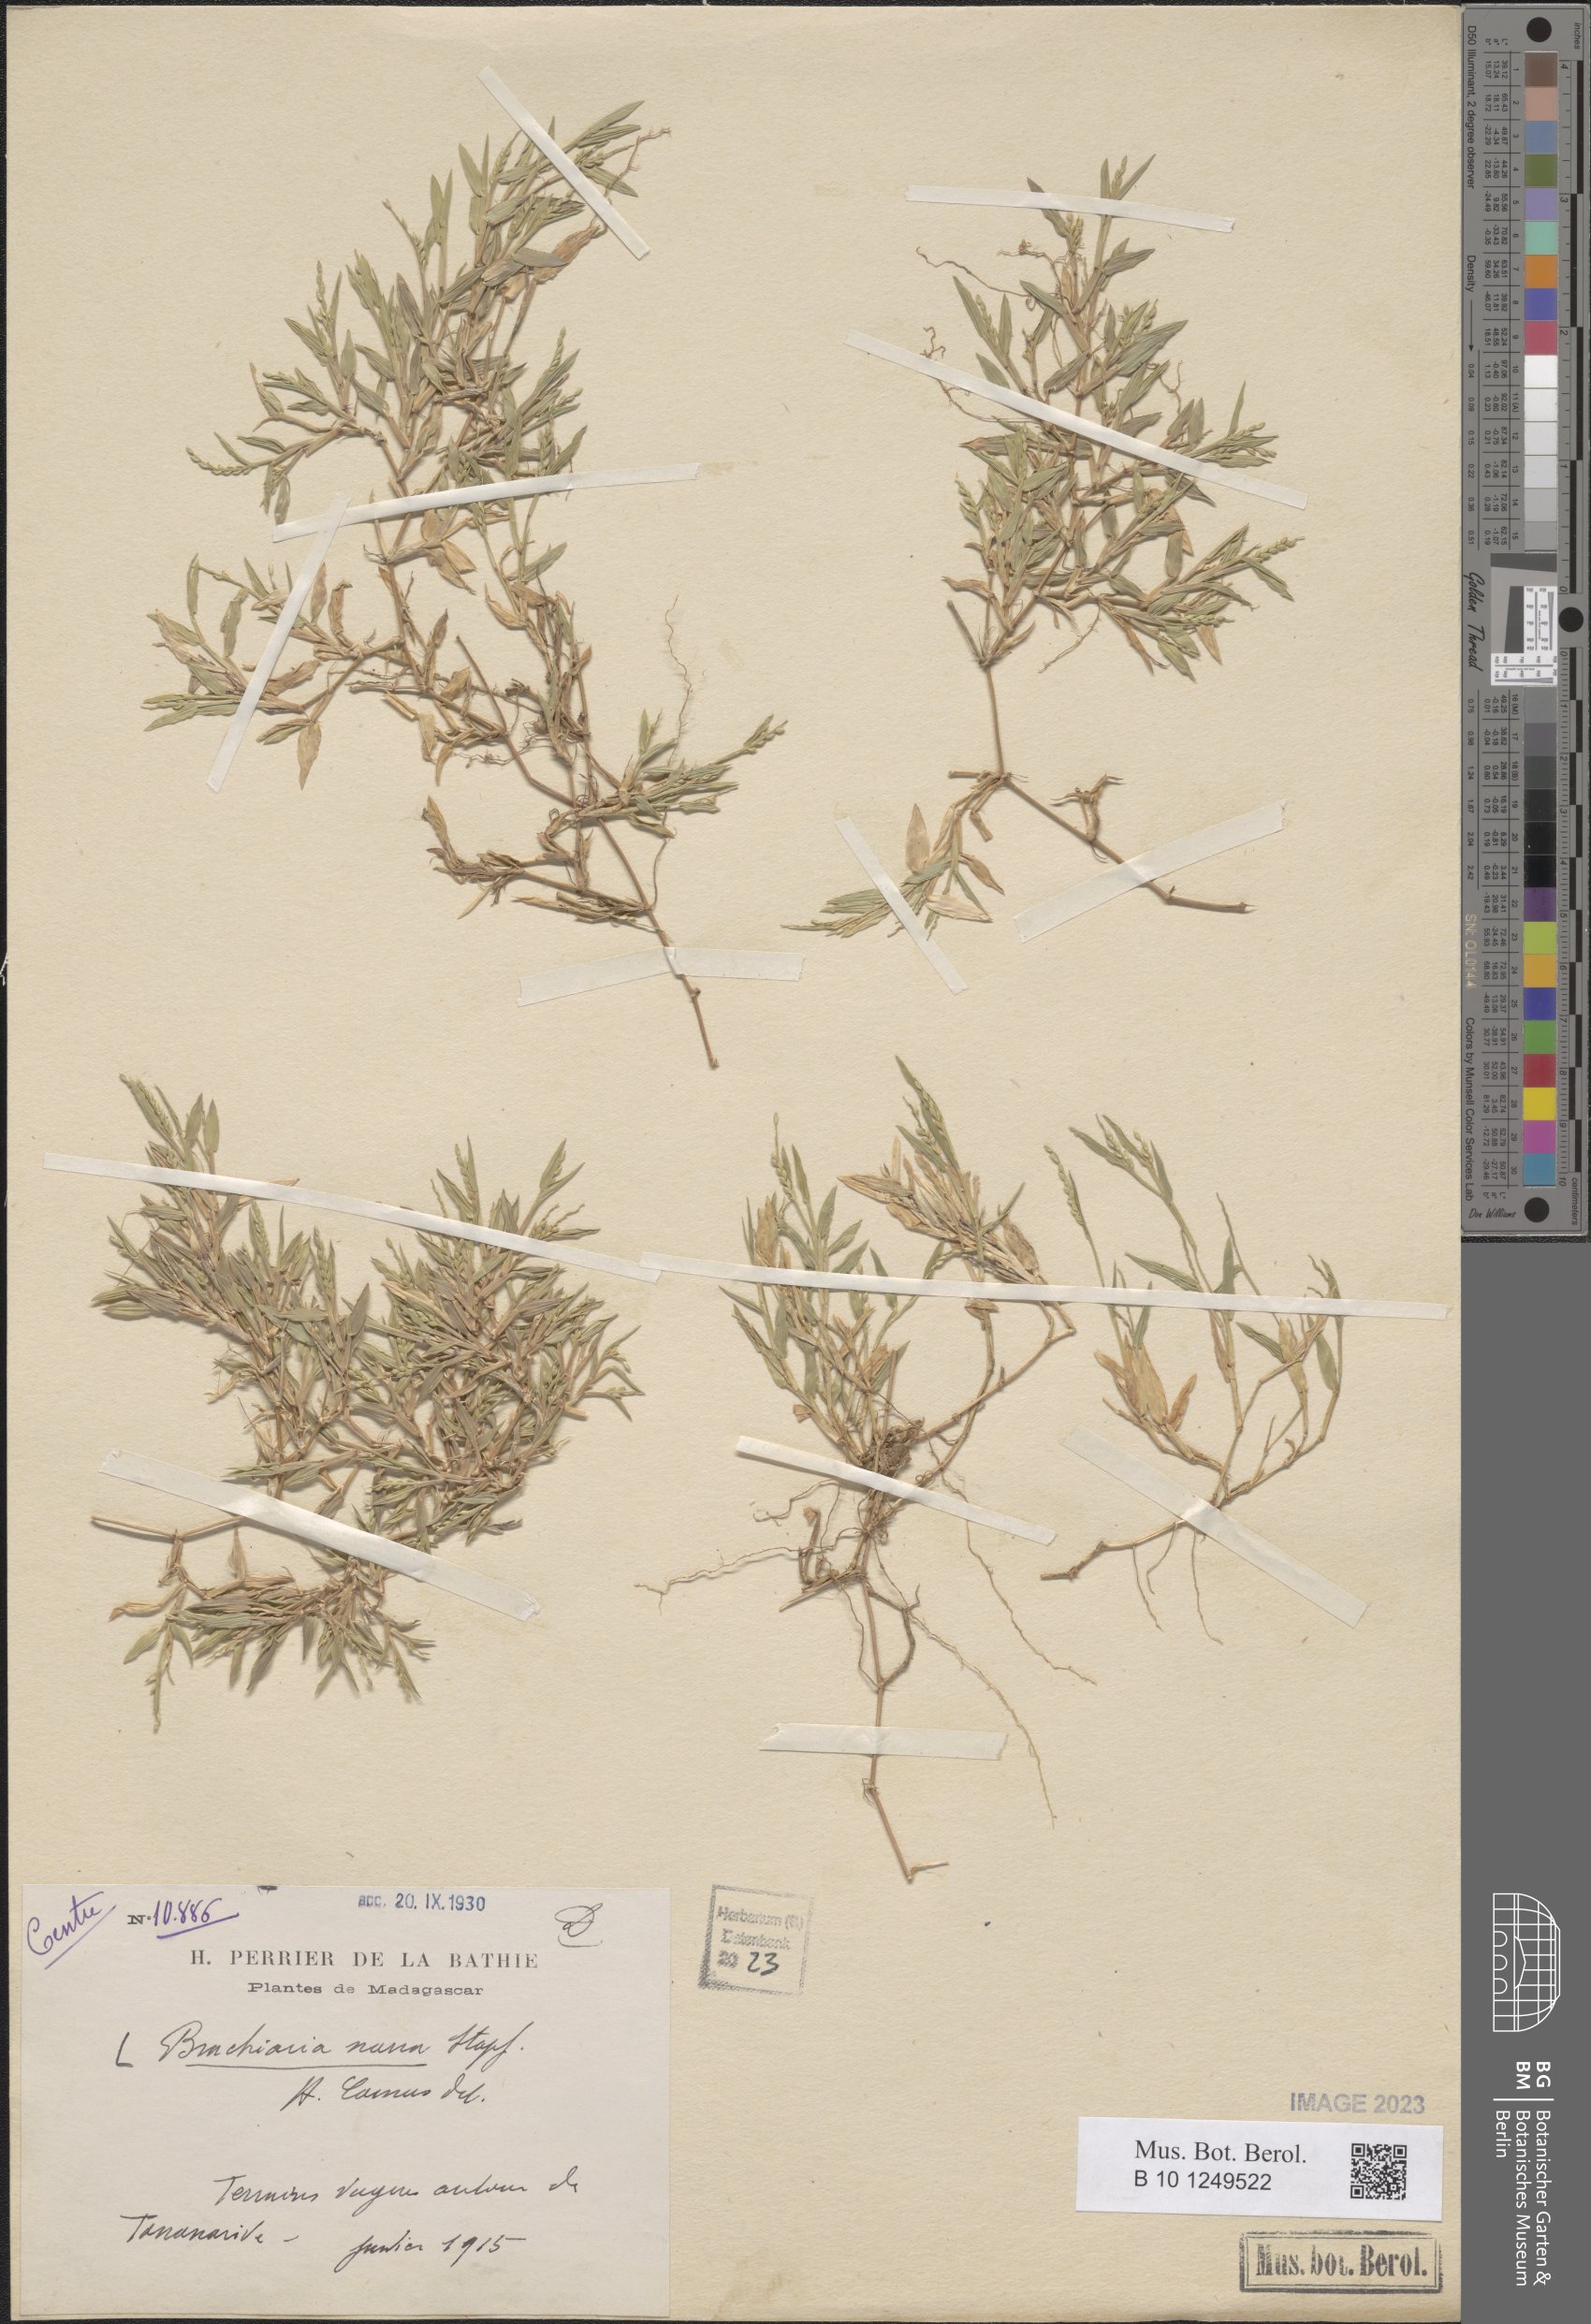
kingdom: Plantae
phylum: Tracheophyta
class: Liliopsida
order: Poales
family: Poaceae
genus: Urochloa
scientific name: Urochloa Brachiaria nana
